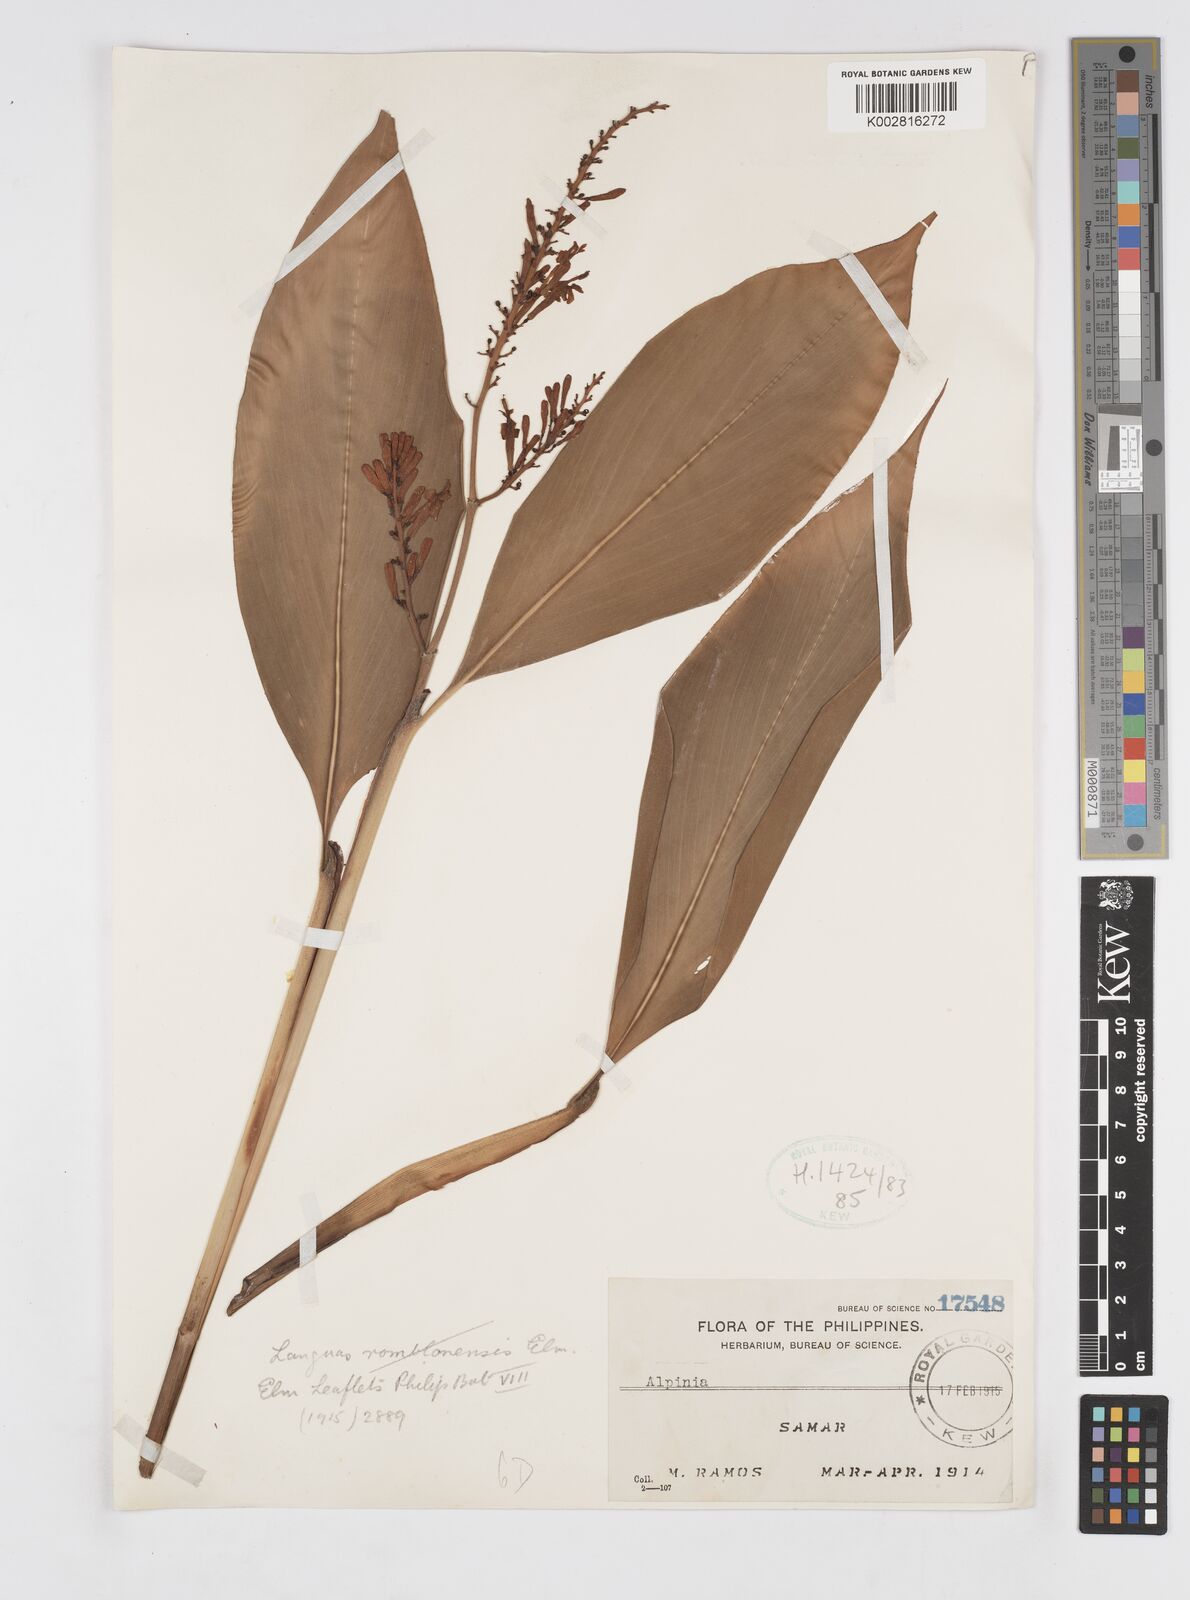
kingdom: Plantae
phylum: Tracheophyta
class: Liliopsida
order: Zingiberales
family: Zingiberaceae
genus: Alpinia
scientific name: Alpinia
